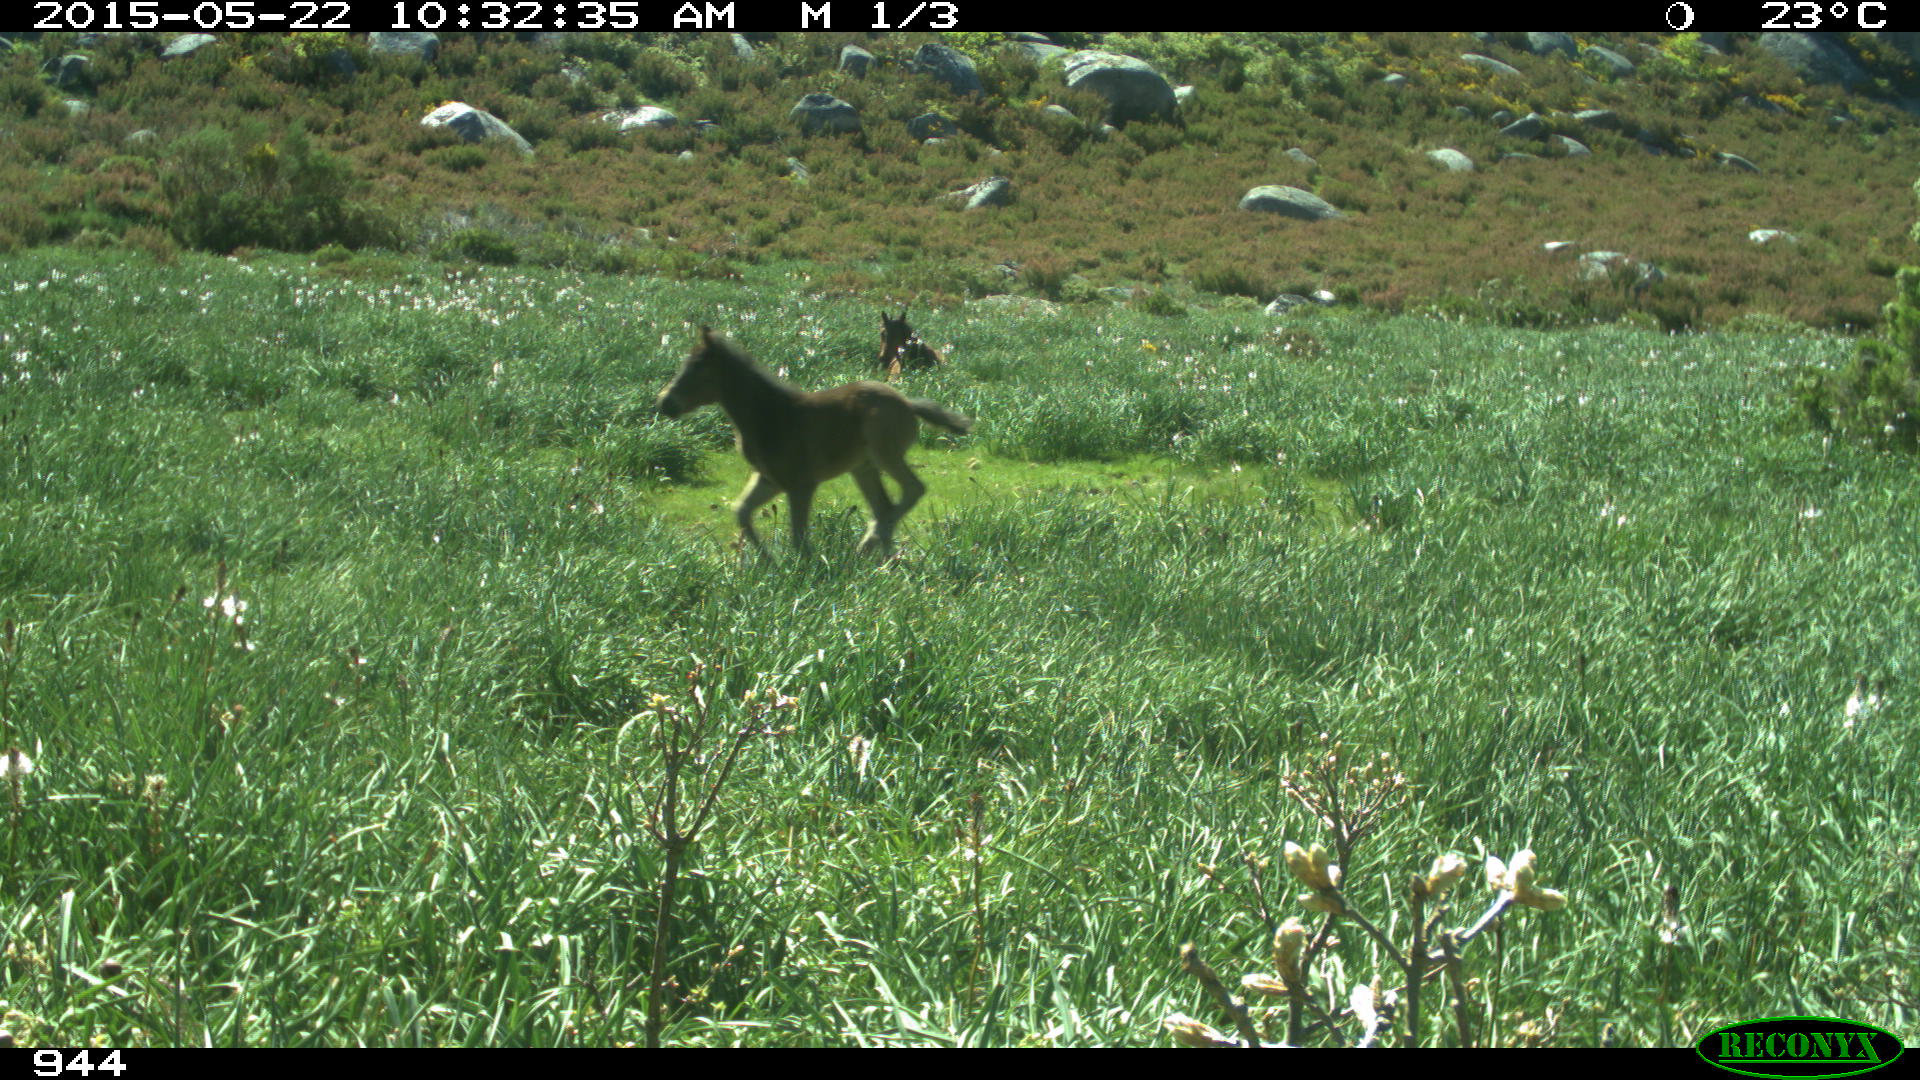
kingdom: Animalia
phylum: Chordata
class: Mammalia
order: Perissodactyla
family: Equidae
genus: Equus
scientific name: Equus caballus
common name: Horse
